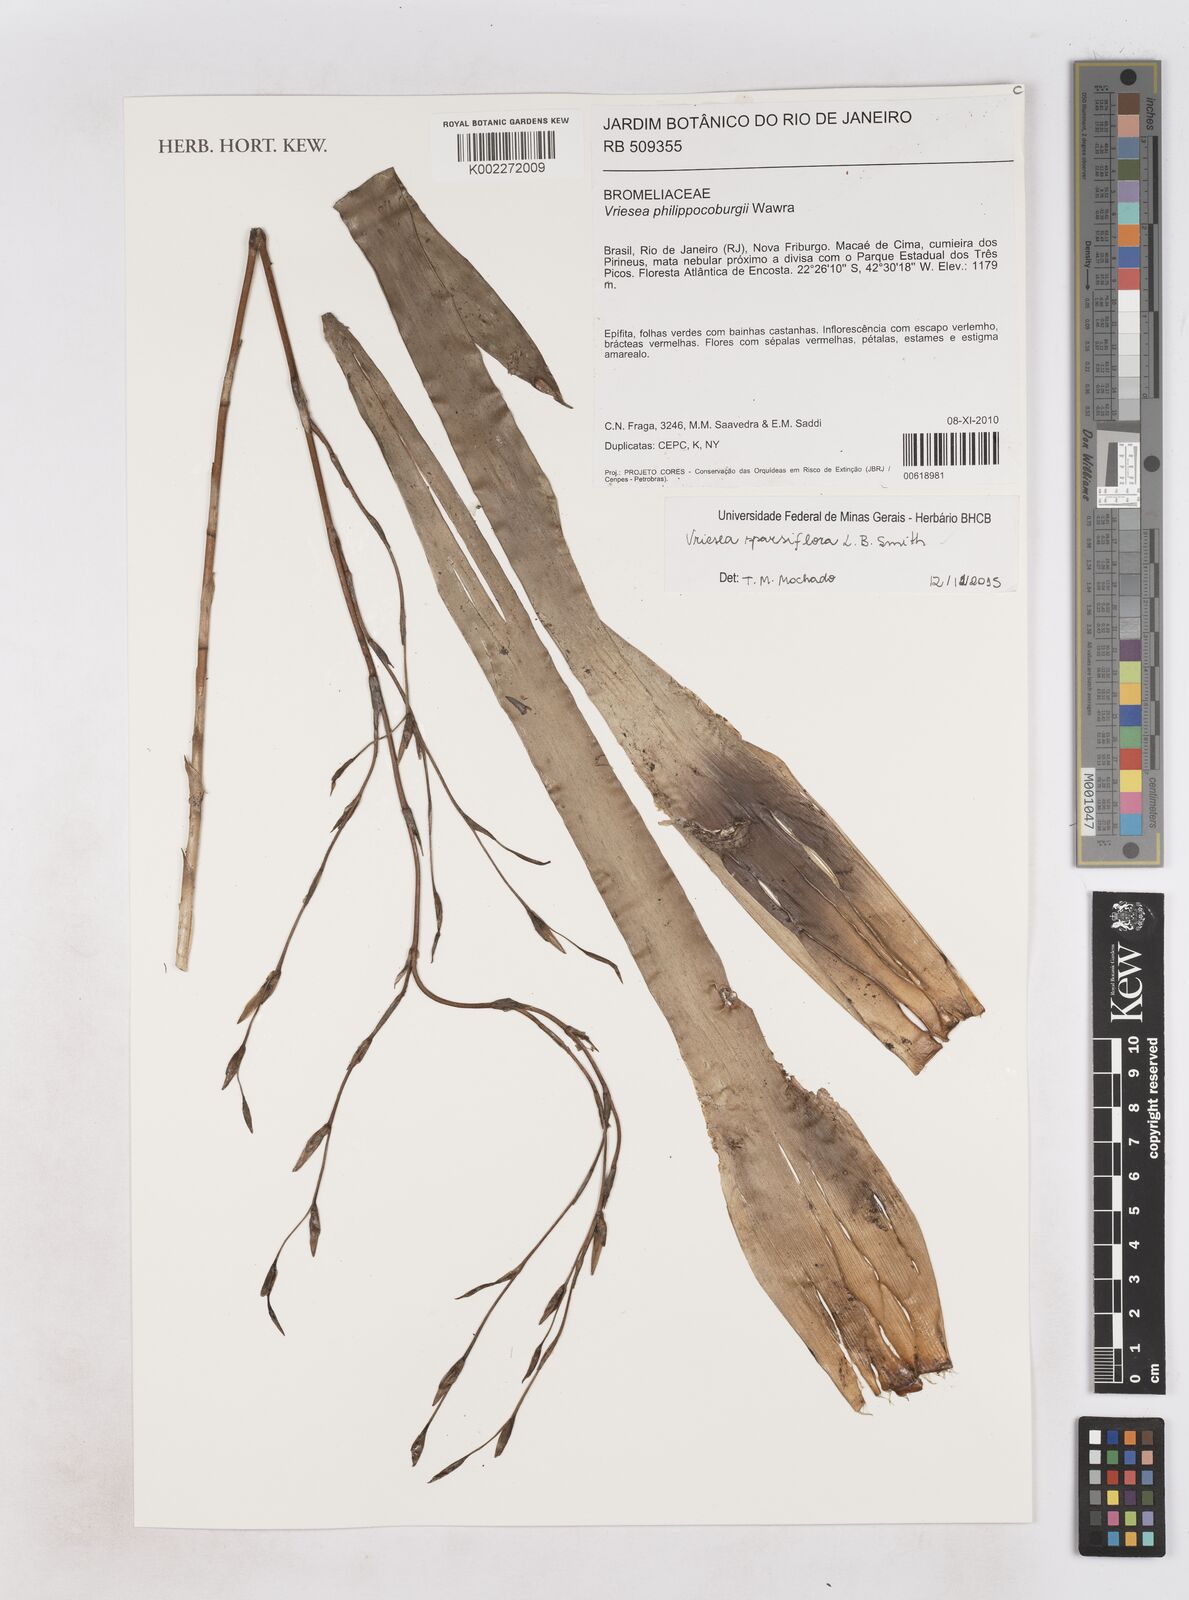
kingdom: Plantae
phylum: Tracheophyta
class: Liliopsida
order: Poales
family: Bromeliaceae
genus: Vriesea
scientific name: Vriesea sparsiflora
